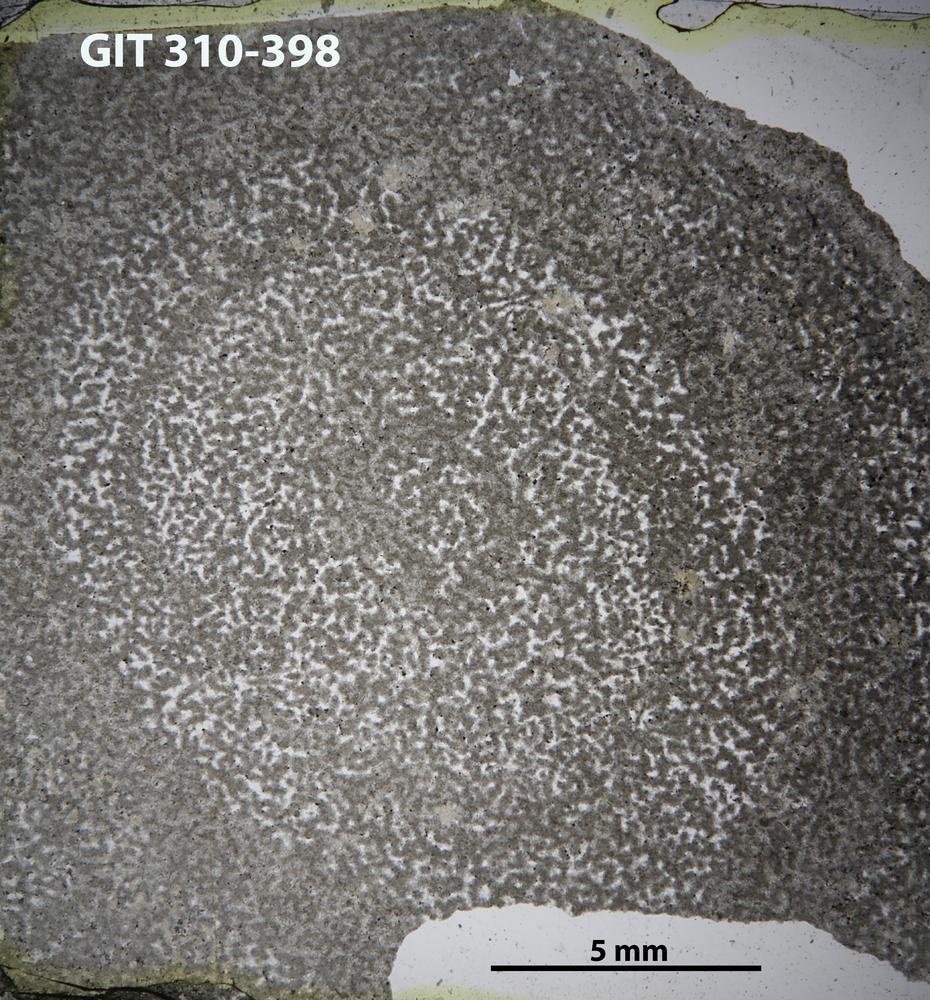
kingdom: Animalia
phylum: Porifera
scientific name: Porifera
